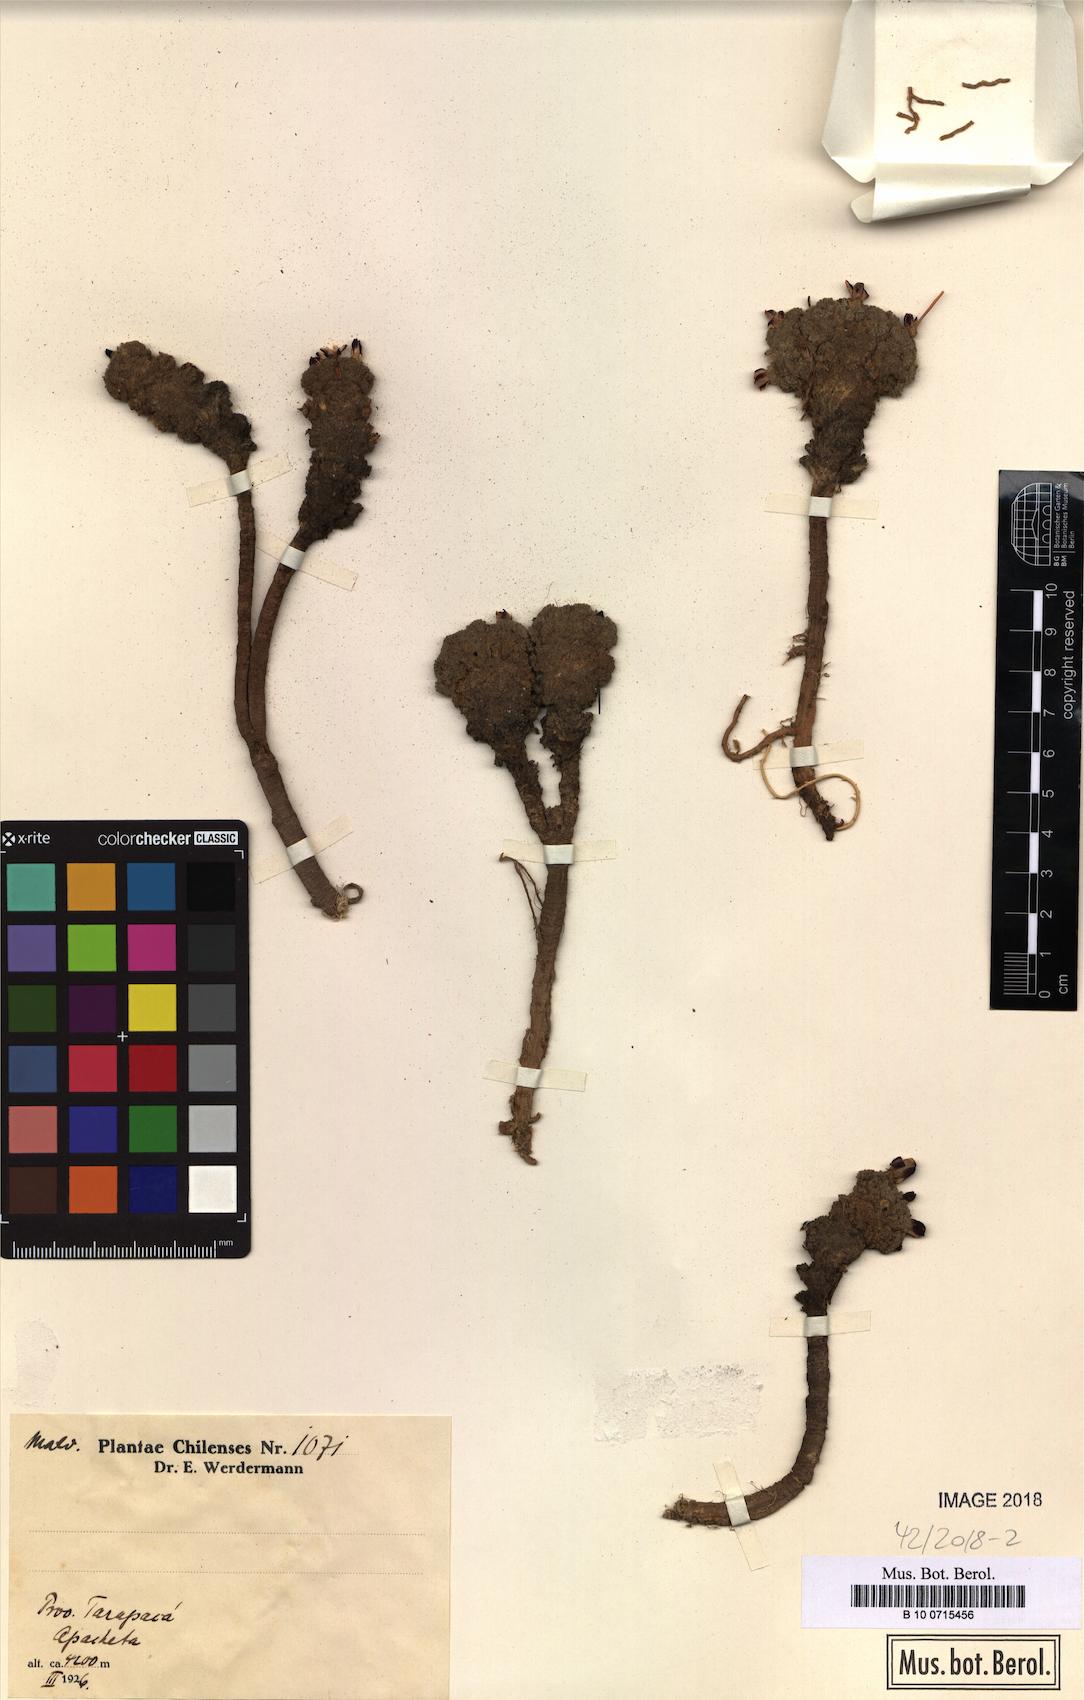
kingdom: Plantae
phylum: Tracheophyta
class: Magnoliopsida
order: Malvales
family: Malvaceae
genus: Nototriche
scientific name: Nototriche pulvinata
